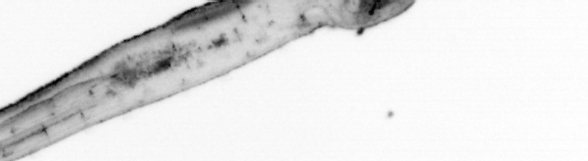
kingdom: Animalia
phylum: Chaetognatha
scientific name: Chaetognatha
